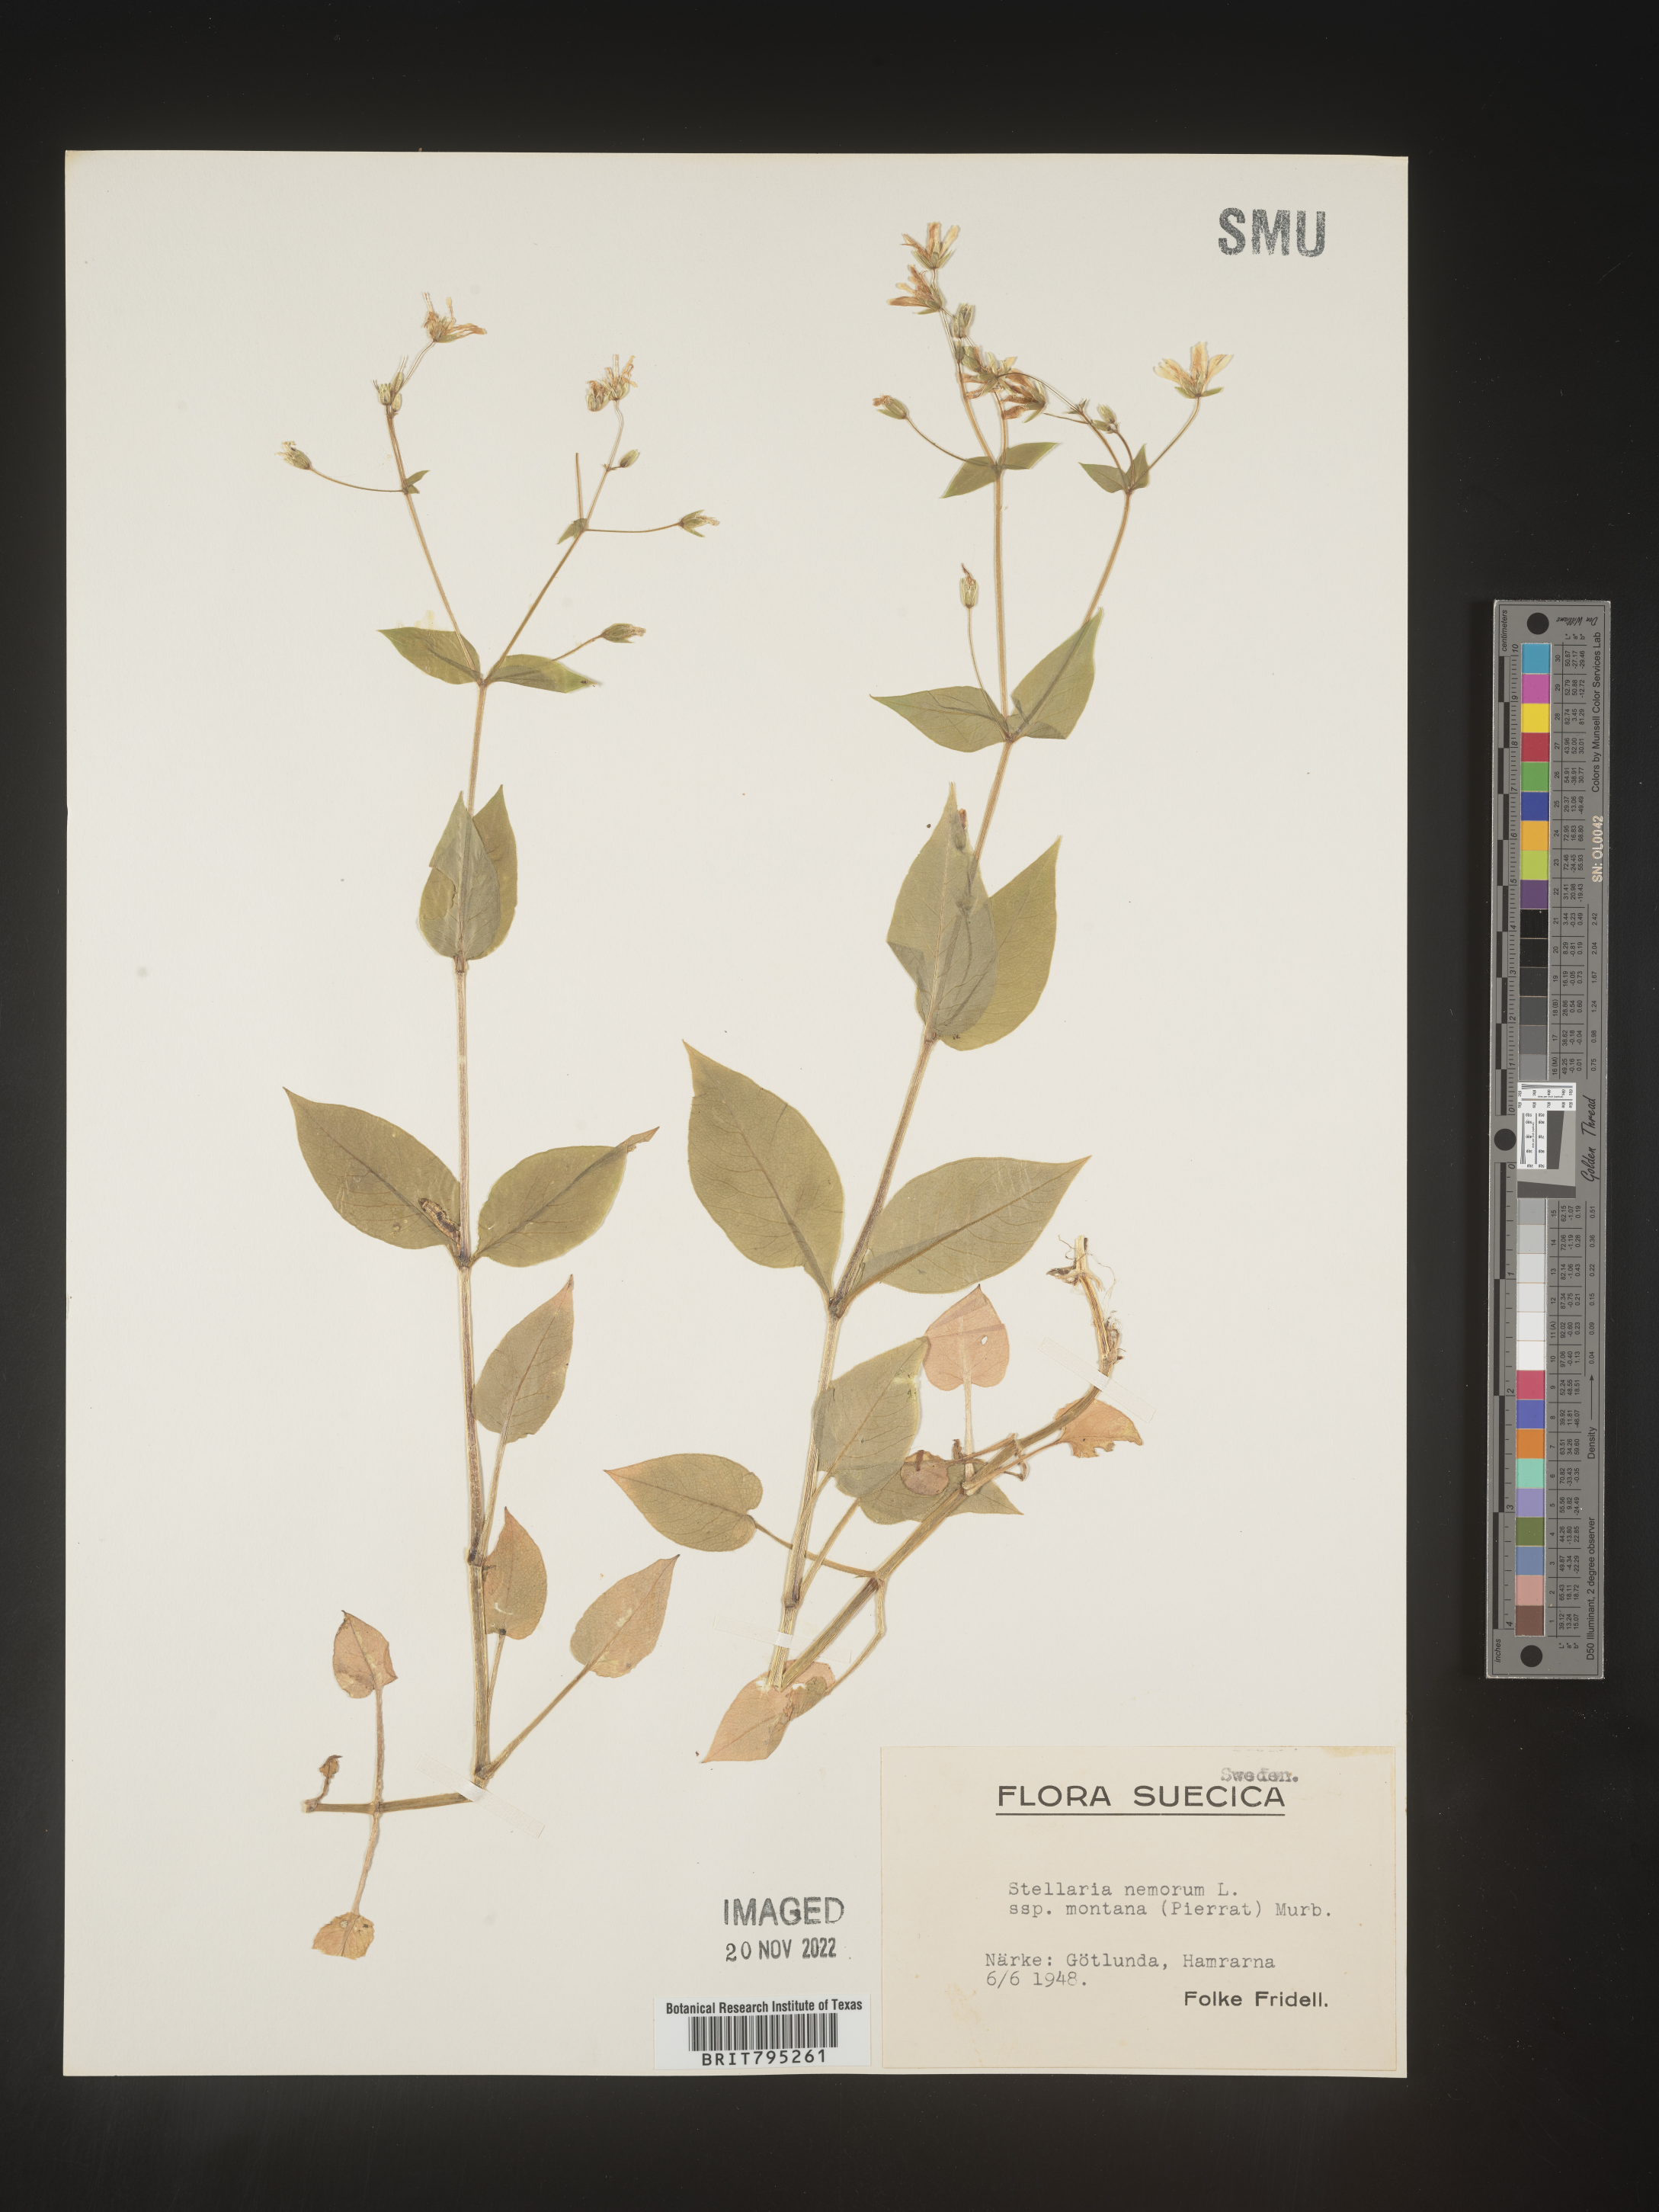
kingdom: Plantae
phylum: Tracheophyta
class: Magnoliopsida
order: Caryophyllales
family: Caryophyllaceae
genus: Stellaria
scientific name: Stellaria
